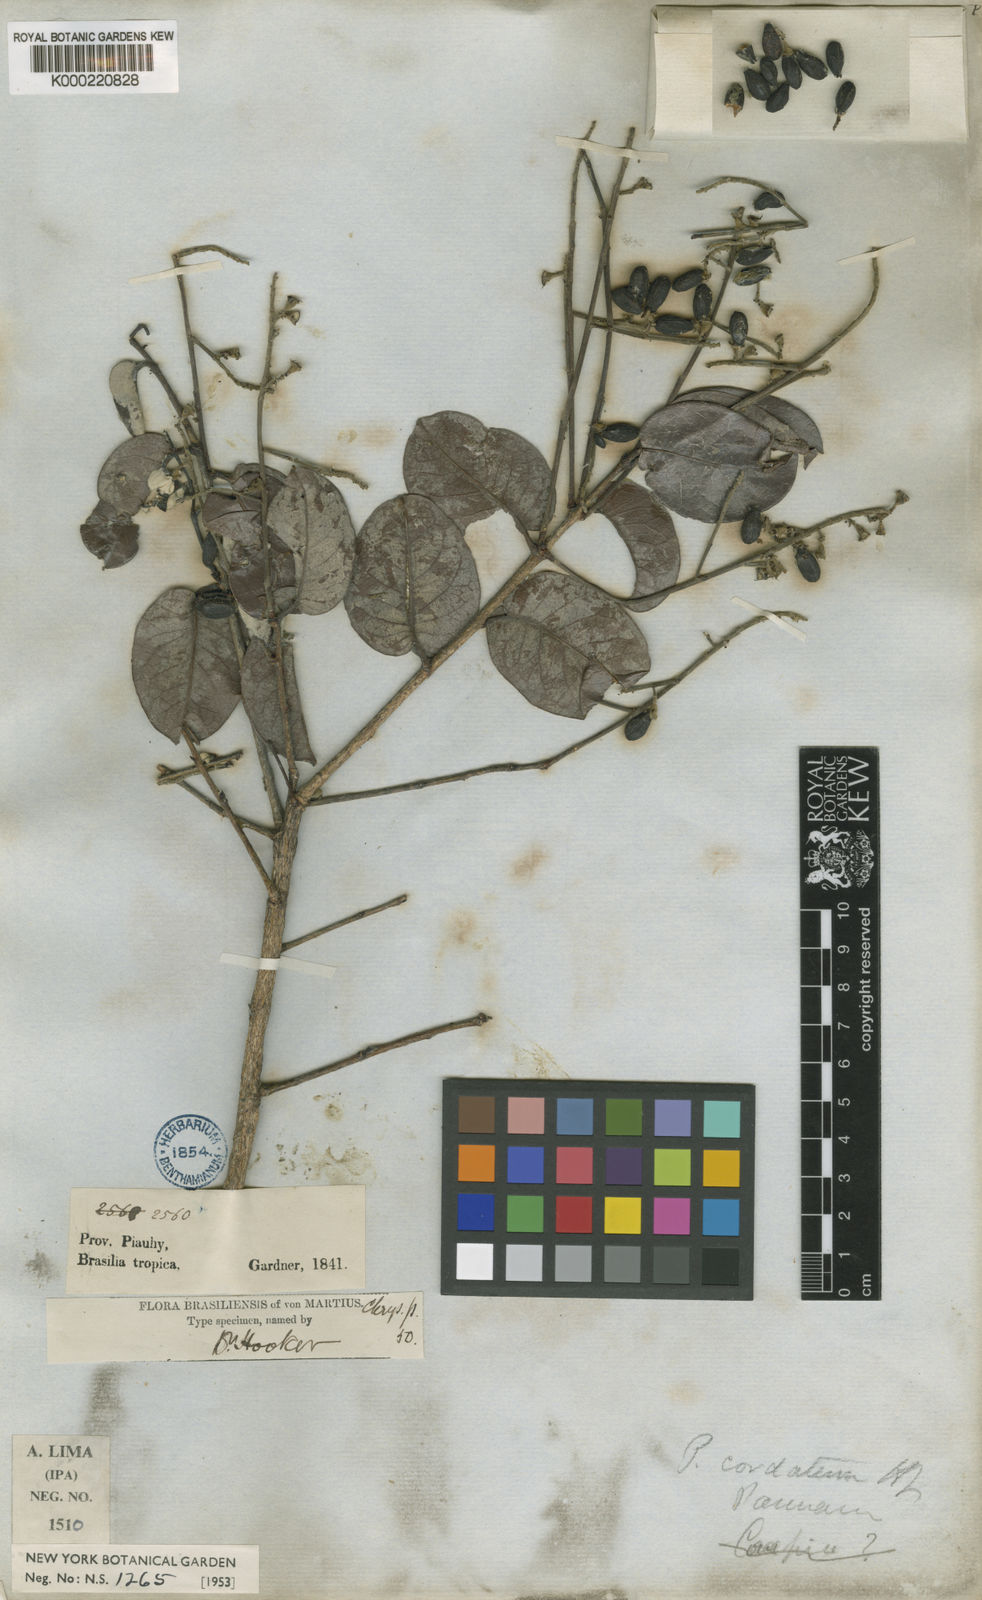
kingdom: Plantae
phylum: Tracheophyta
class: Magnoliopsida
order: Malpighiales
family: Chrysobalanaceae
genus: Exellodendron
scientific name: Exellodendron cordatum
